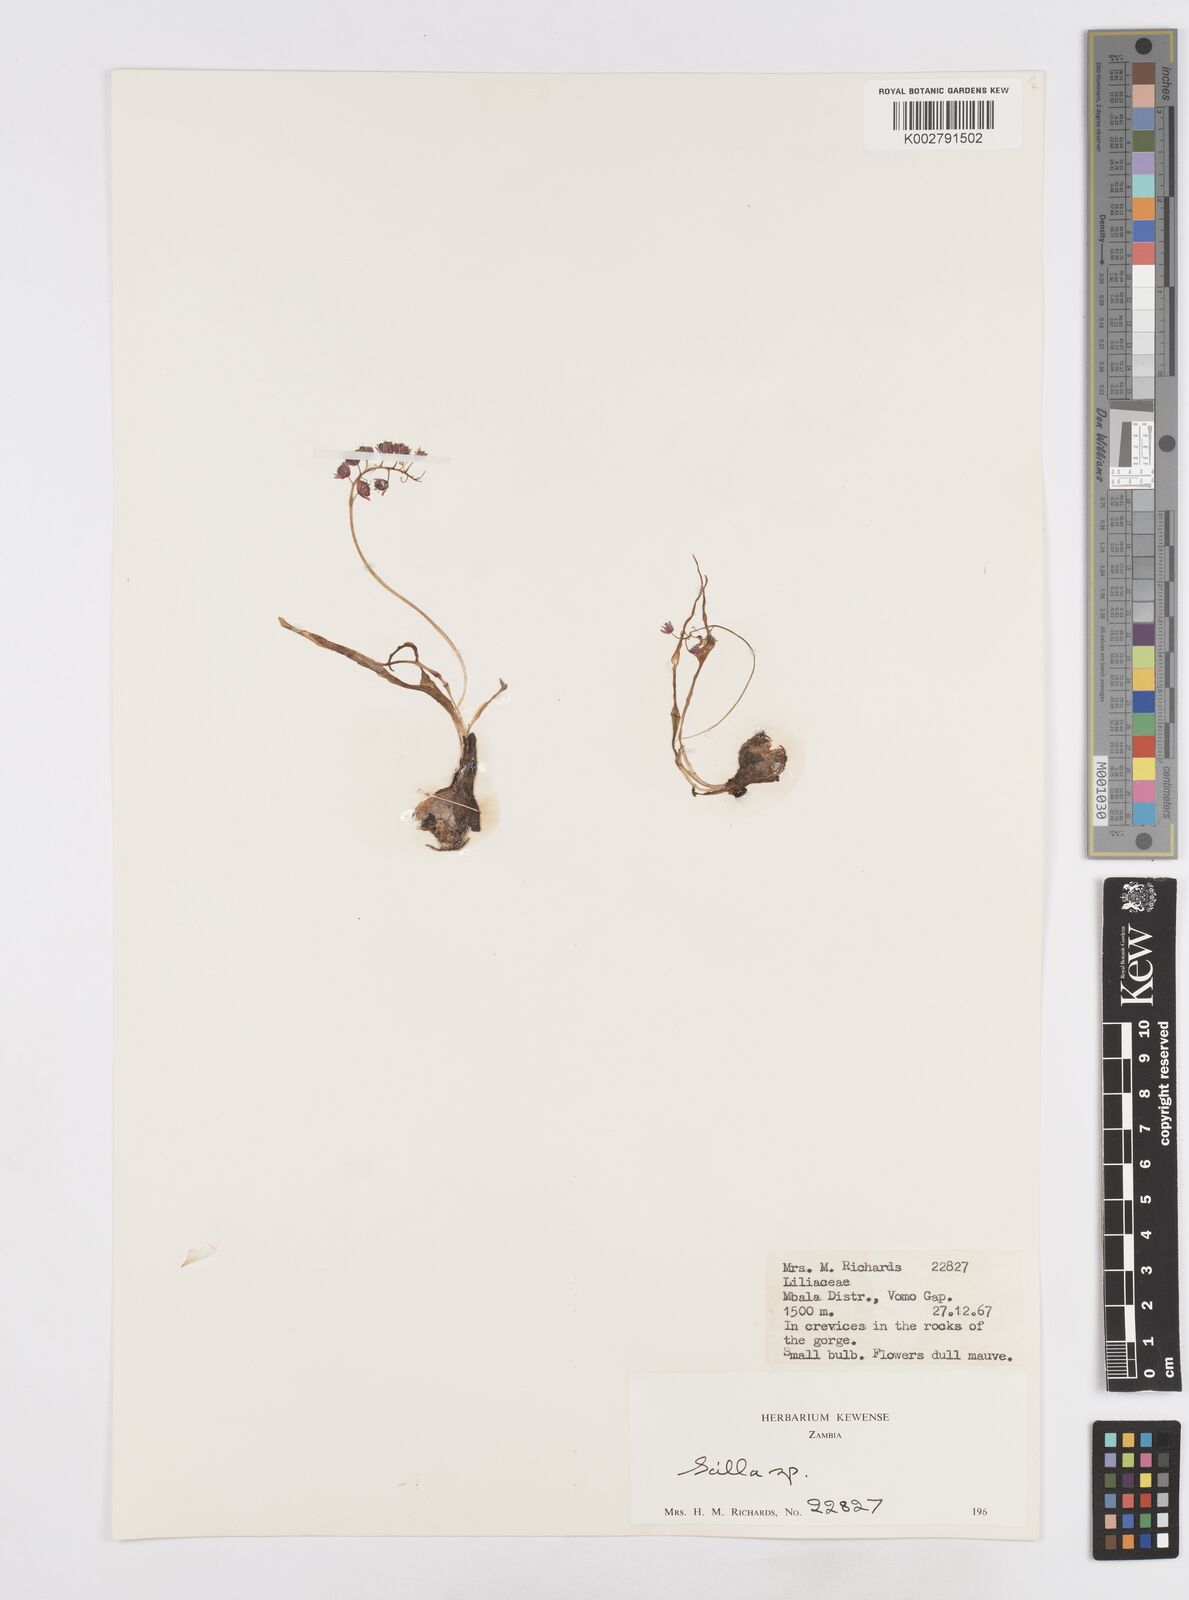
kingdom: Plantae
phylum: Tracheophyta
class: Liliopsida
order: Asparagales
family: Asparagaceae
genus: Scilla
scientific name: Scilla
